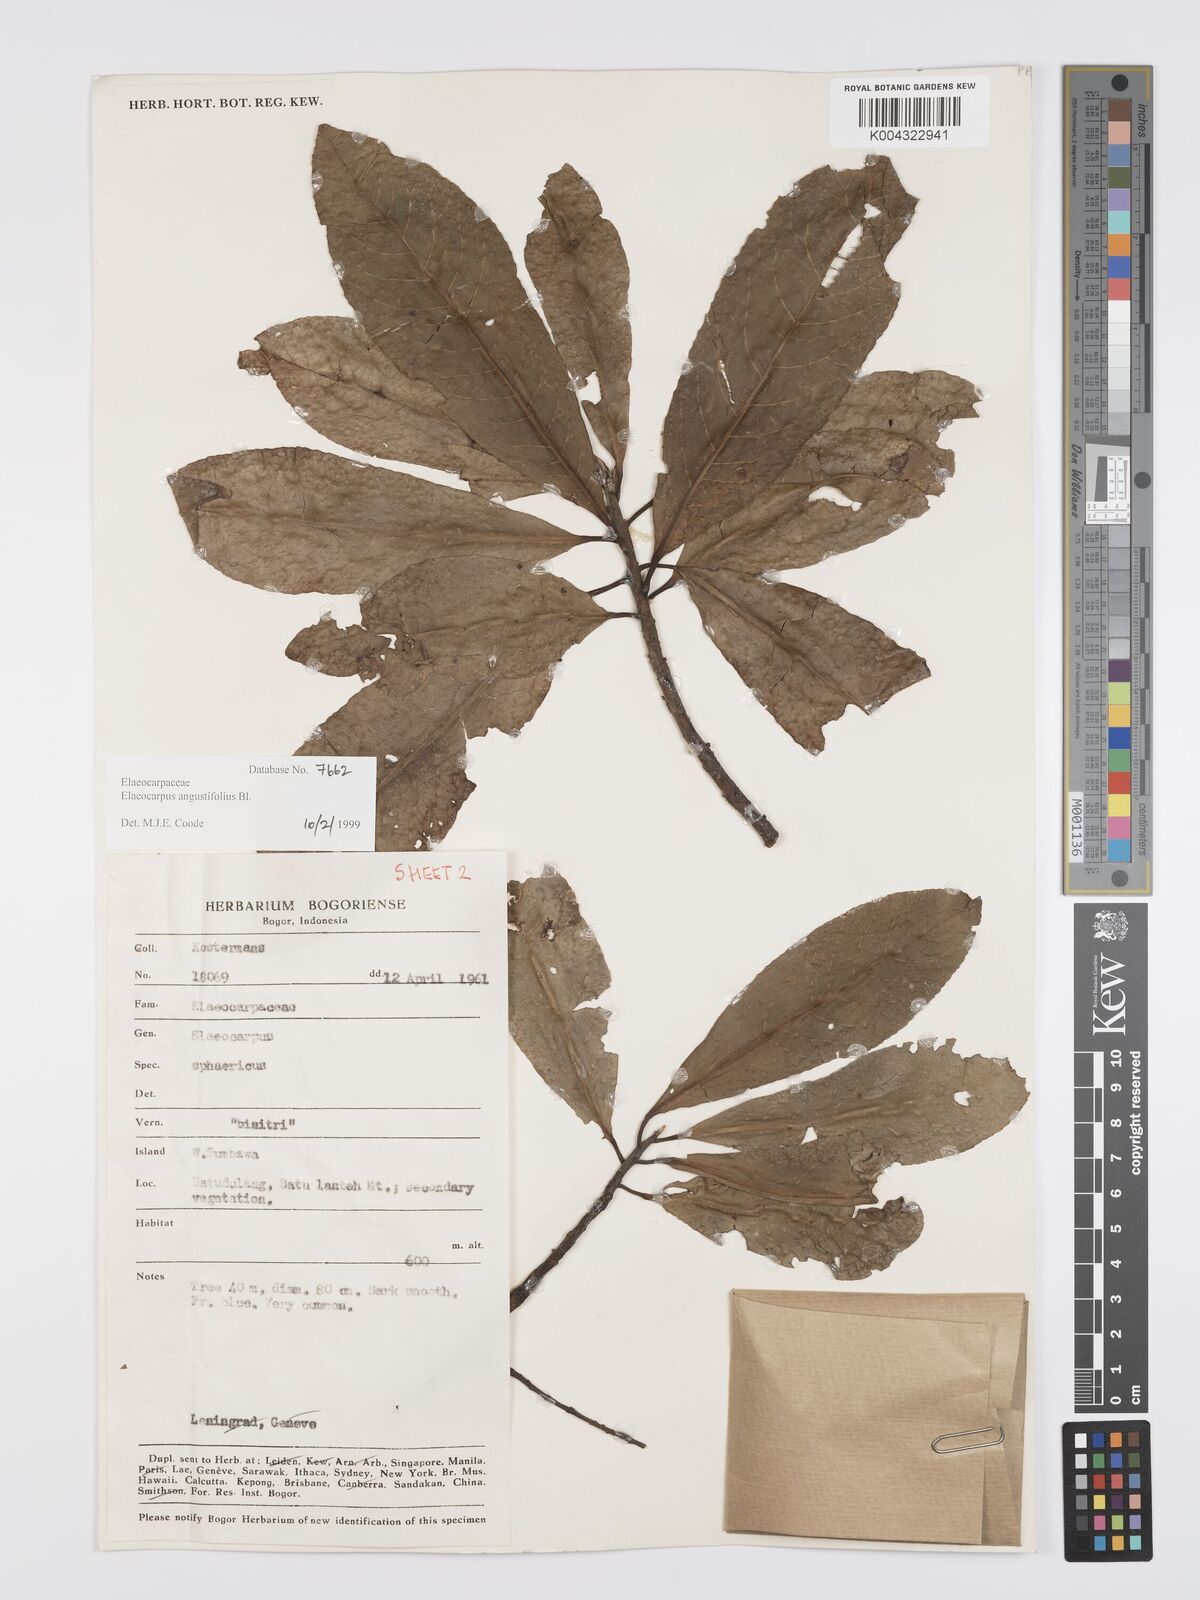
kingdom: Plantae
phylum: Tracheophyta
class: Magnoliopsida
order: Oxalidales
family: Elaeocarpaceae
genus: Elaeocarpus
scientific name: Elaeocarpus
